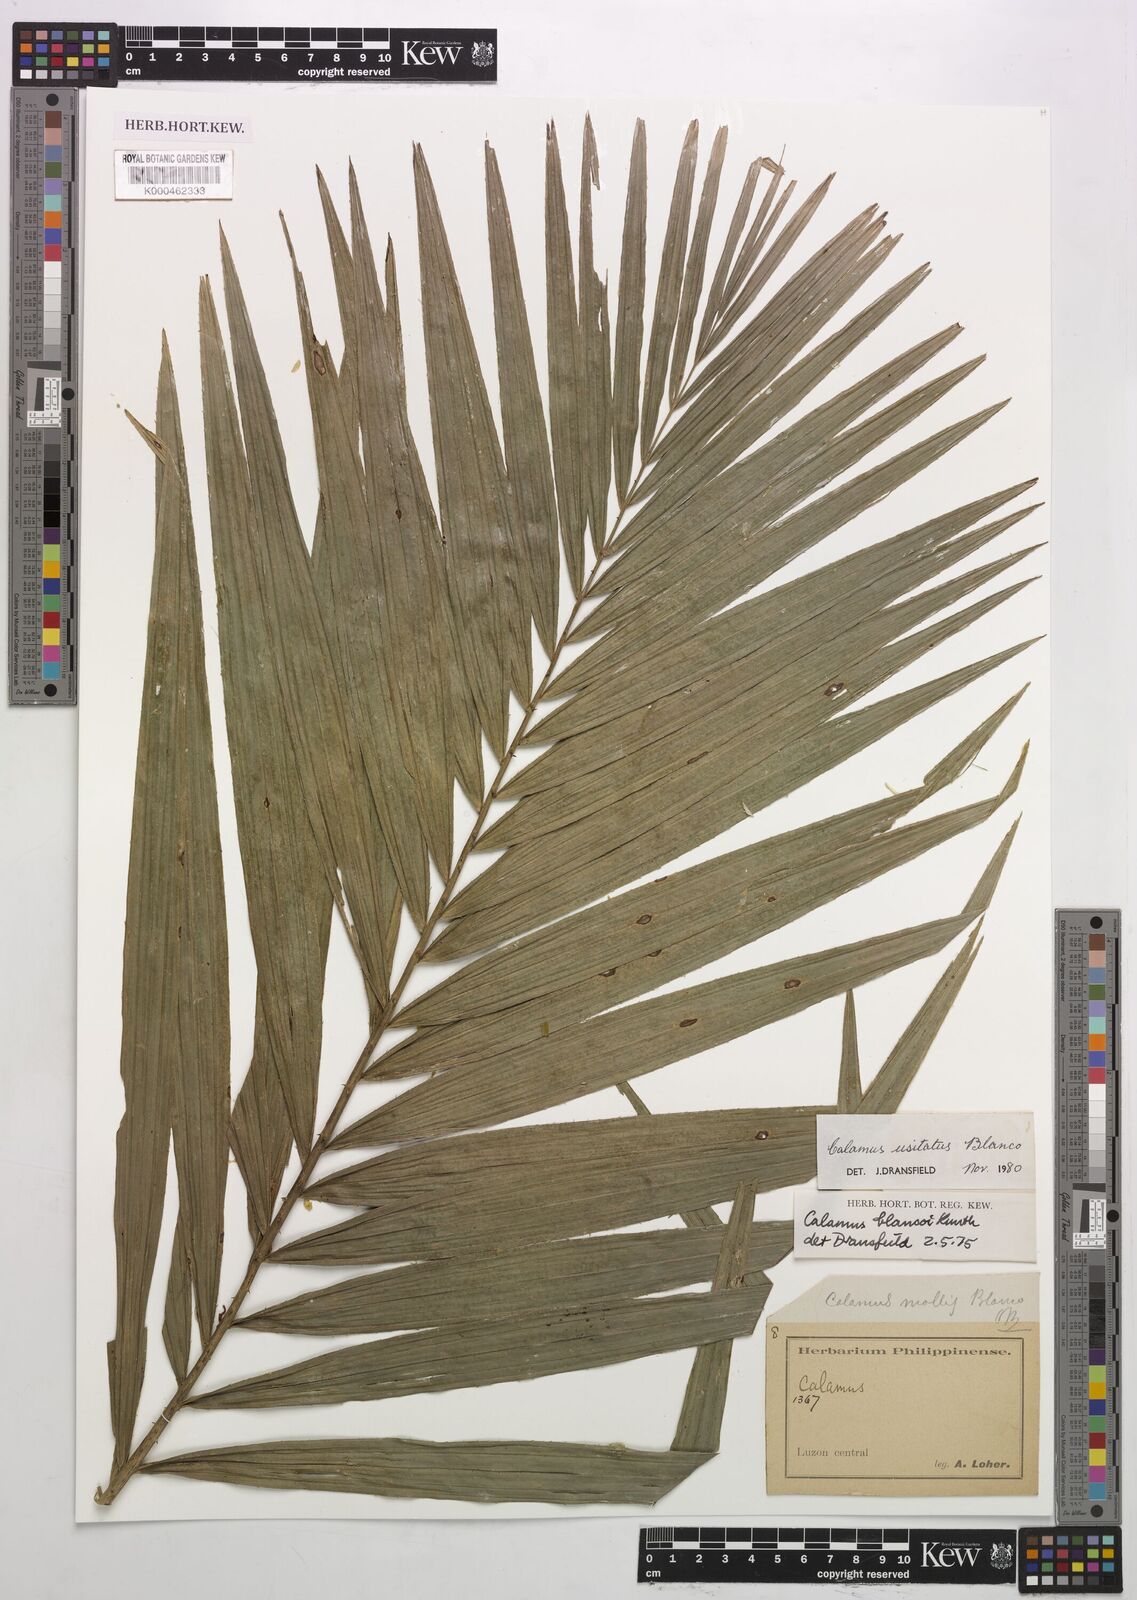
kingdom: Plantae
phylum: Tracheophyta
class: Liliopsida
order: Arecales
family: Arecaceae
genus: Calamus
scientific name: Calamus usitatus
